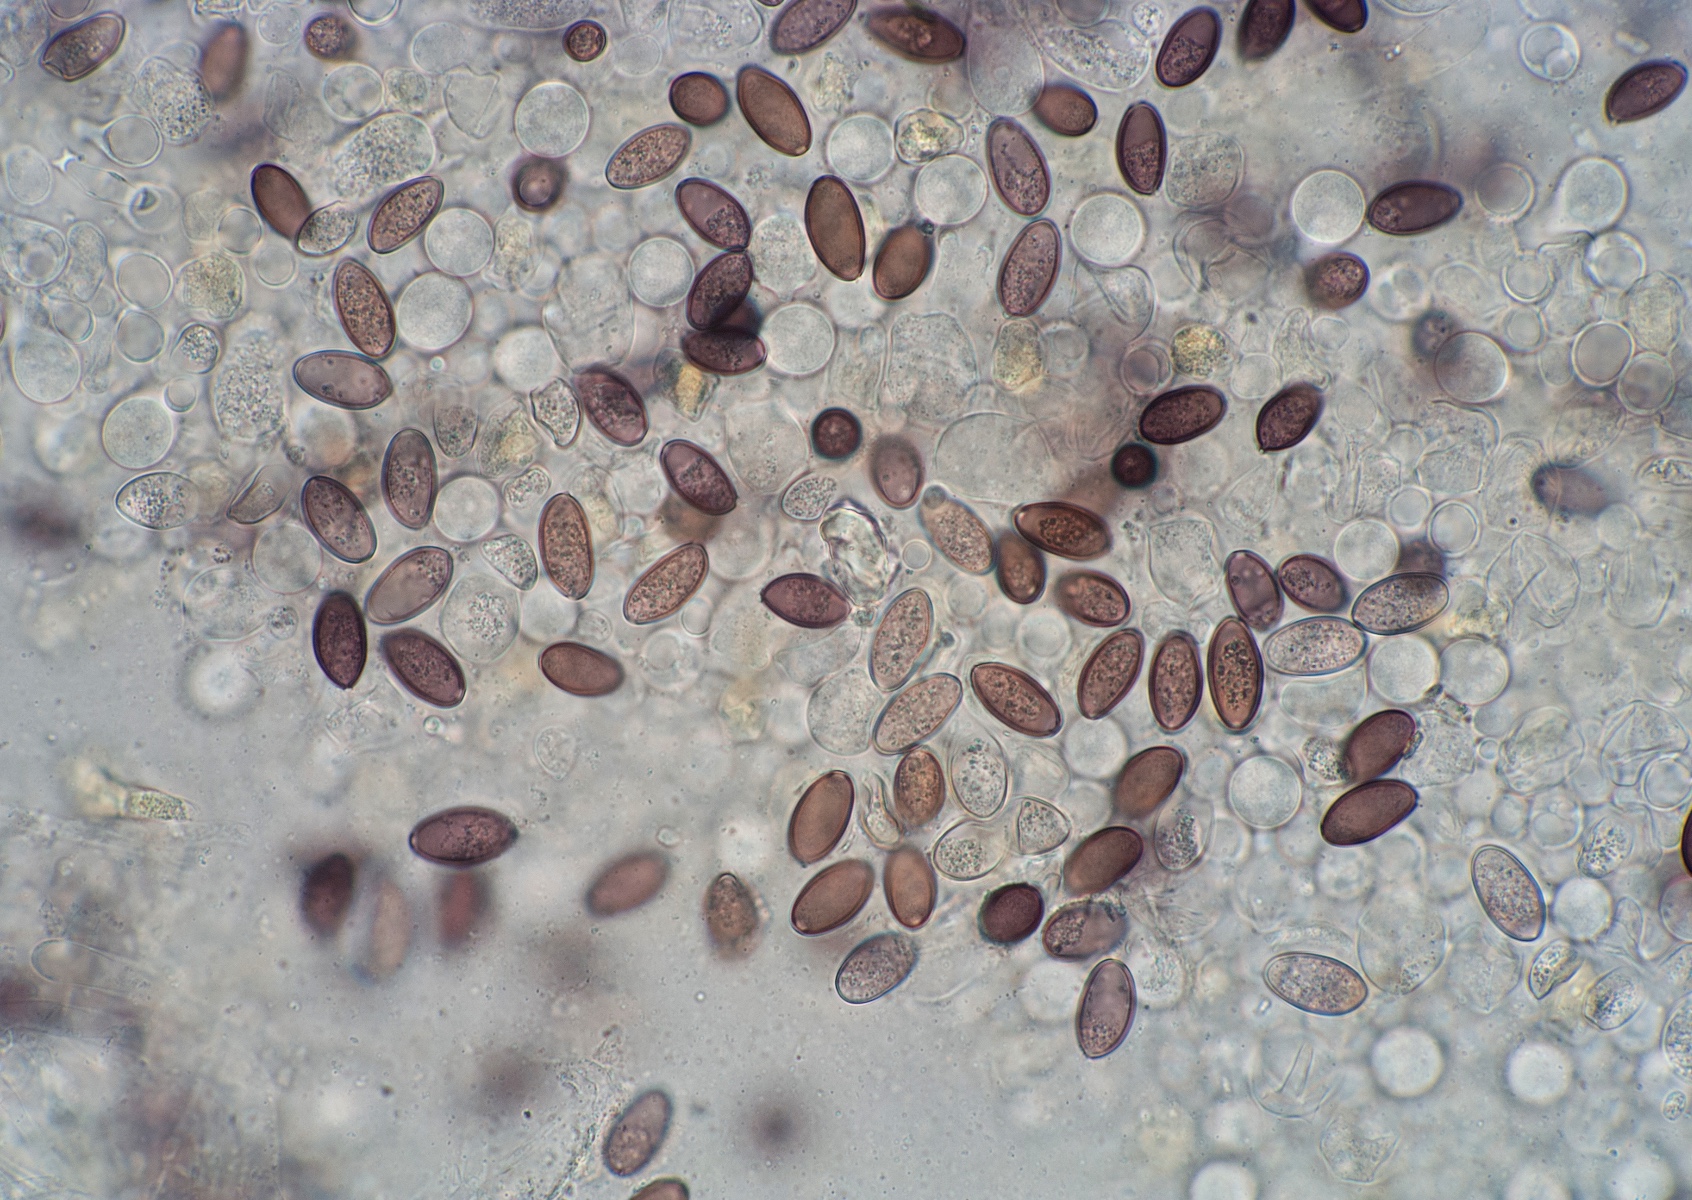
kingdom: Fungi
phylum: Basidiomycota
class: Agaricomycetes
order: Agaricales
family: Strophariaceae
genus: Protostropharia
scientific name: Protostropharia semiglobata
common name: halvkugleformet bredblad
